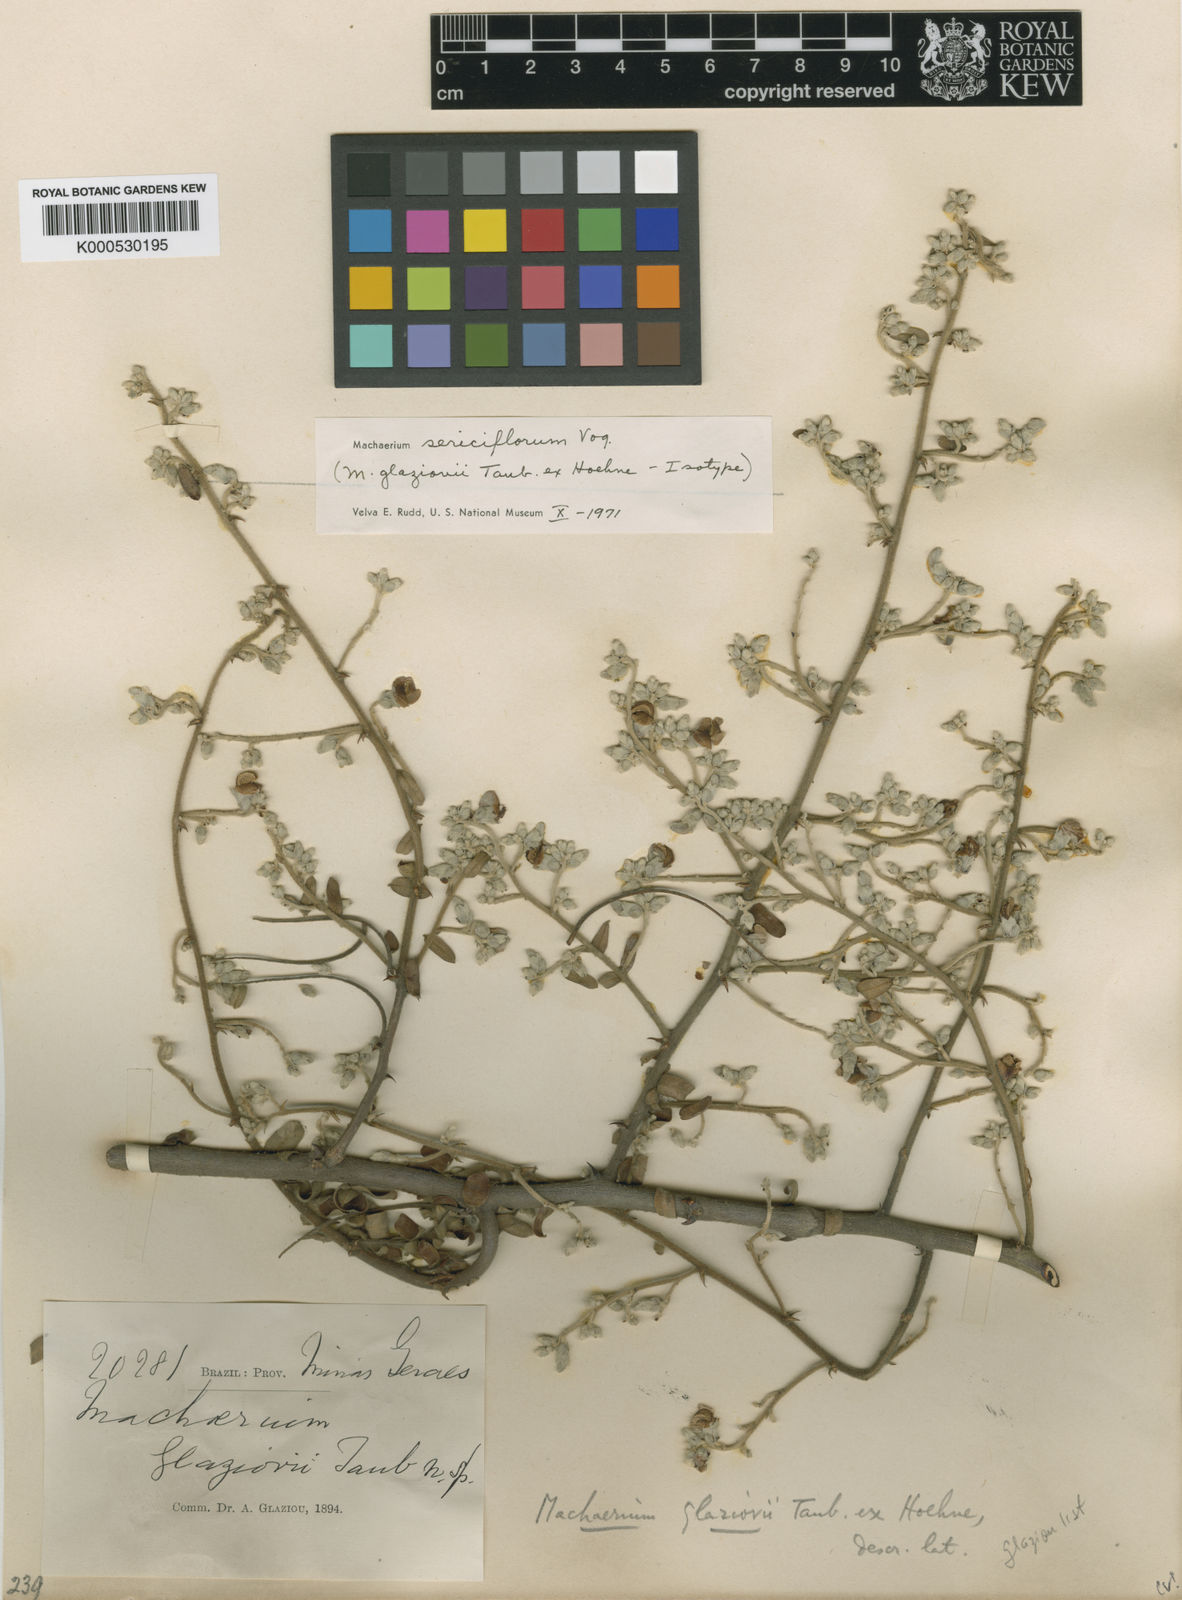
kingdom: Plantae
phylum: Tracheophyta
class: Magnoliopsida
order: Fabales
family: Fabaceae
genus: Machaerium
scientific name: Machaerium aculeatum
